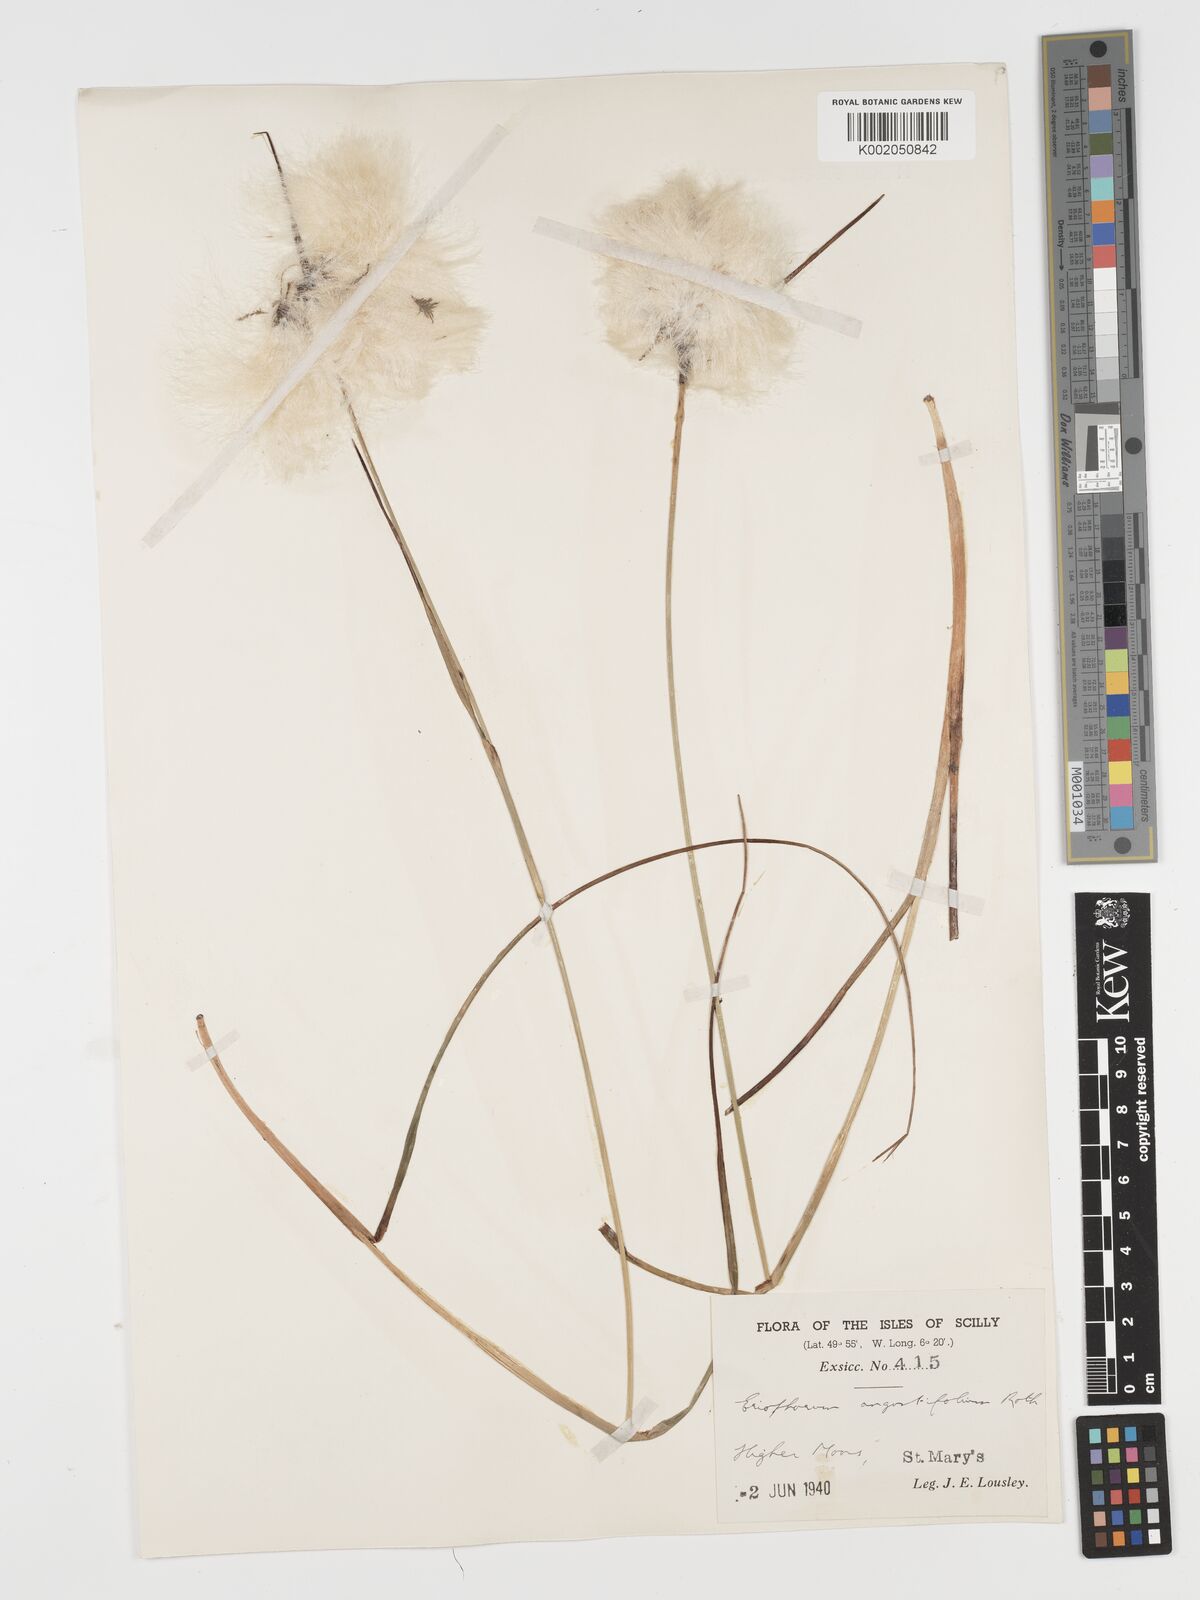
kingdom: Plantae
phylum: Tracheophyta
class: Liliopsida
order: Poales
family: Cyperaceae
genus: Eriophorum
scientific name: Eriophorum angustifolium
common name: Common cottongrass
